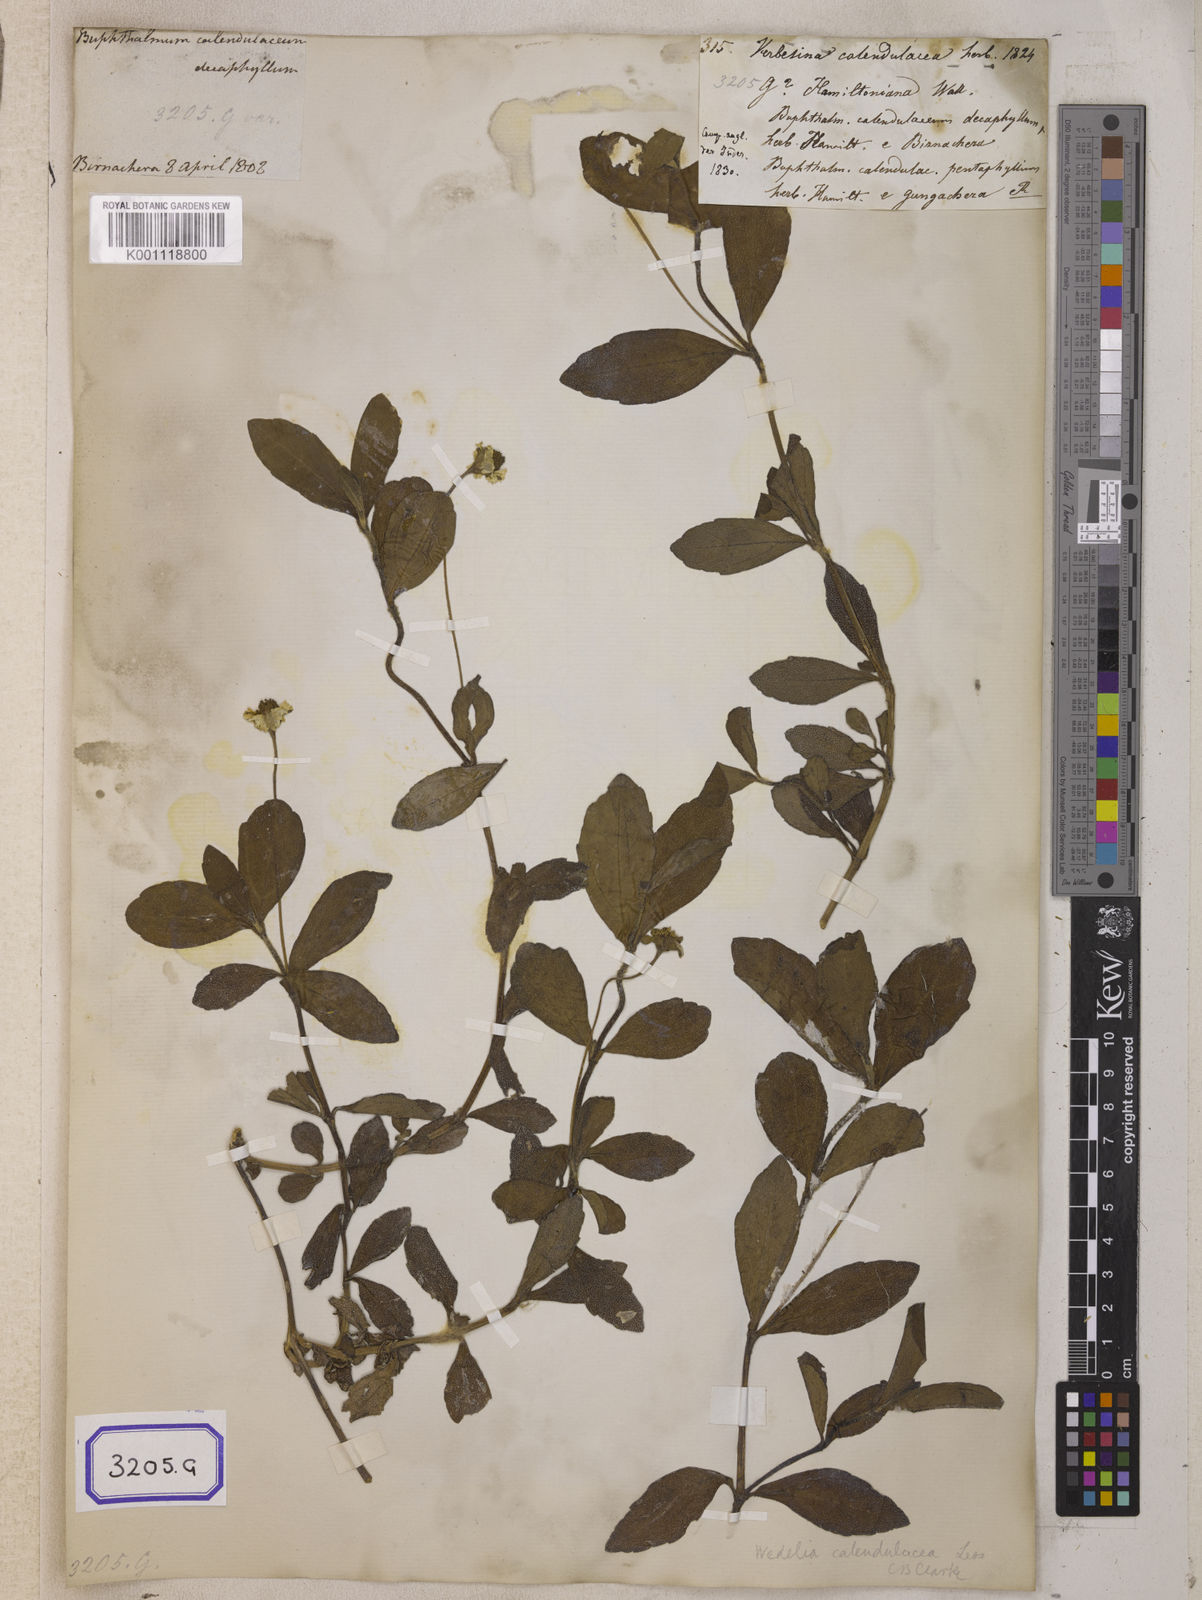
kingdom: Plantae
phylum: Tracheophyta
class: Magnoliopsida
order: Asterales
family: Asteraceae
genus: Sphagneticola
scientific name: Sphagneticola calendulacea
